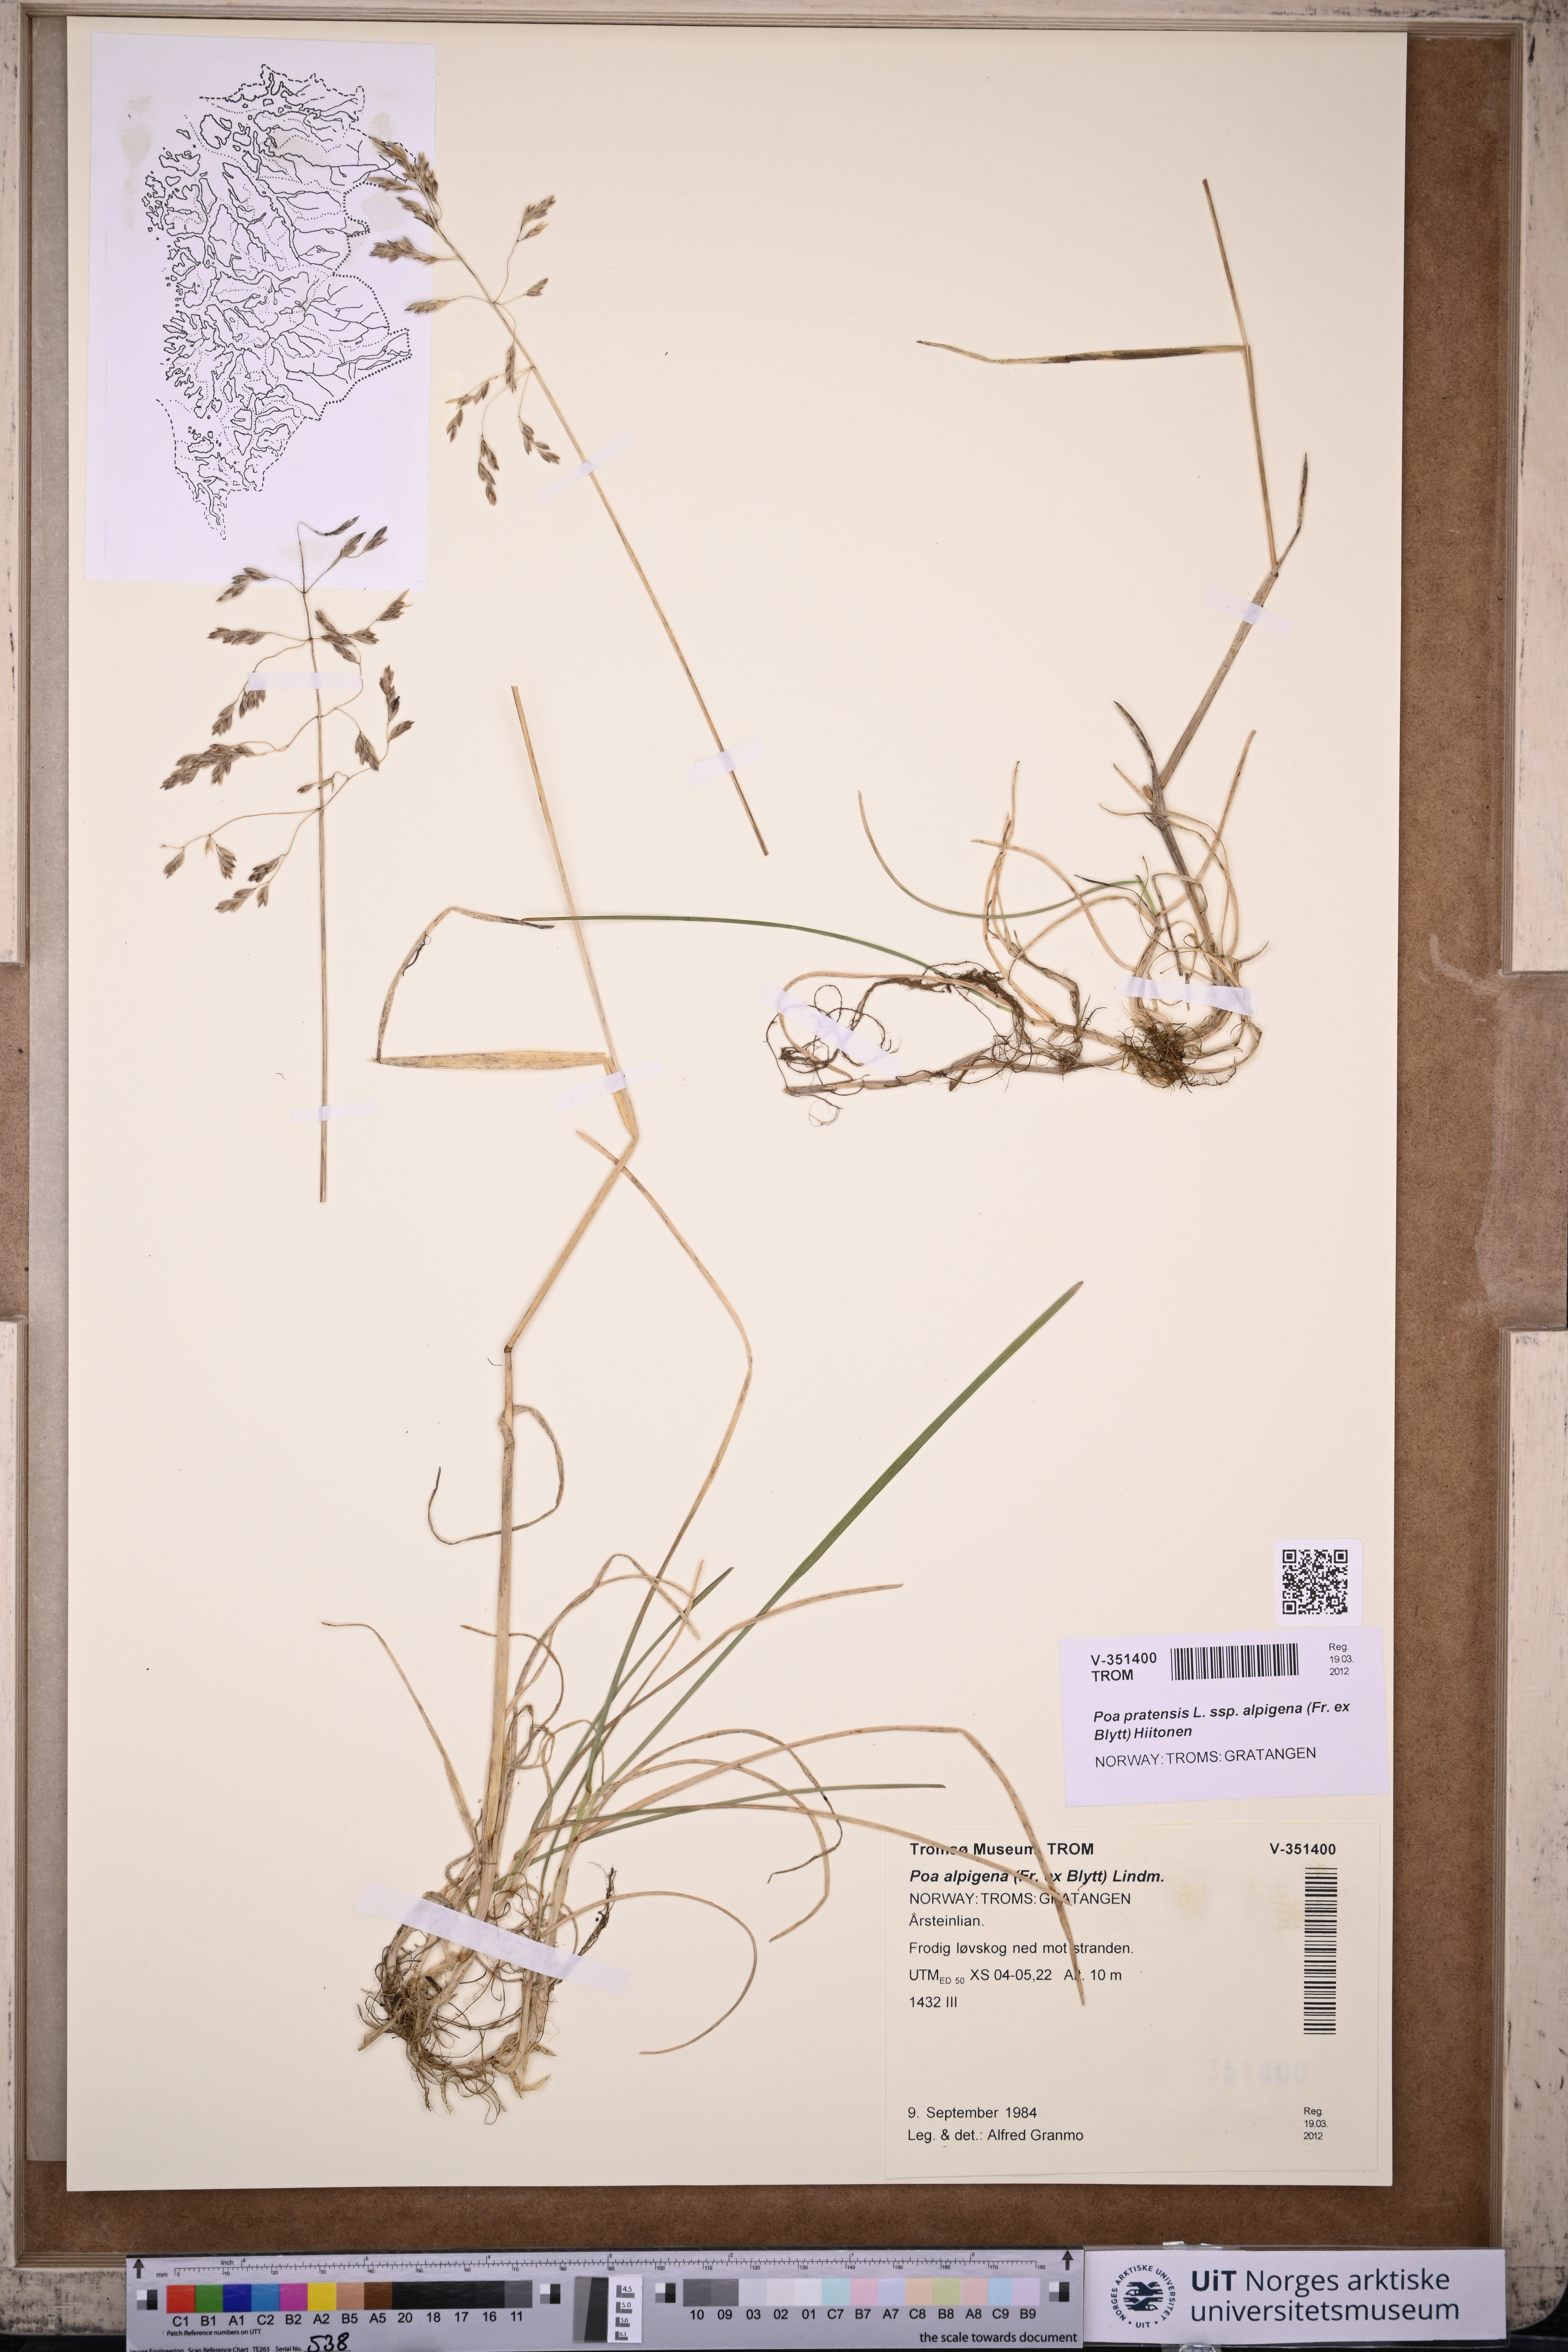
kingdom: Plantae
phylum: Tracheophyta
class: Liliopsida
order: Poales
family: Poaceae
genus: Poa
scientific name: Poa alpigena
